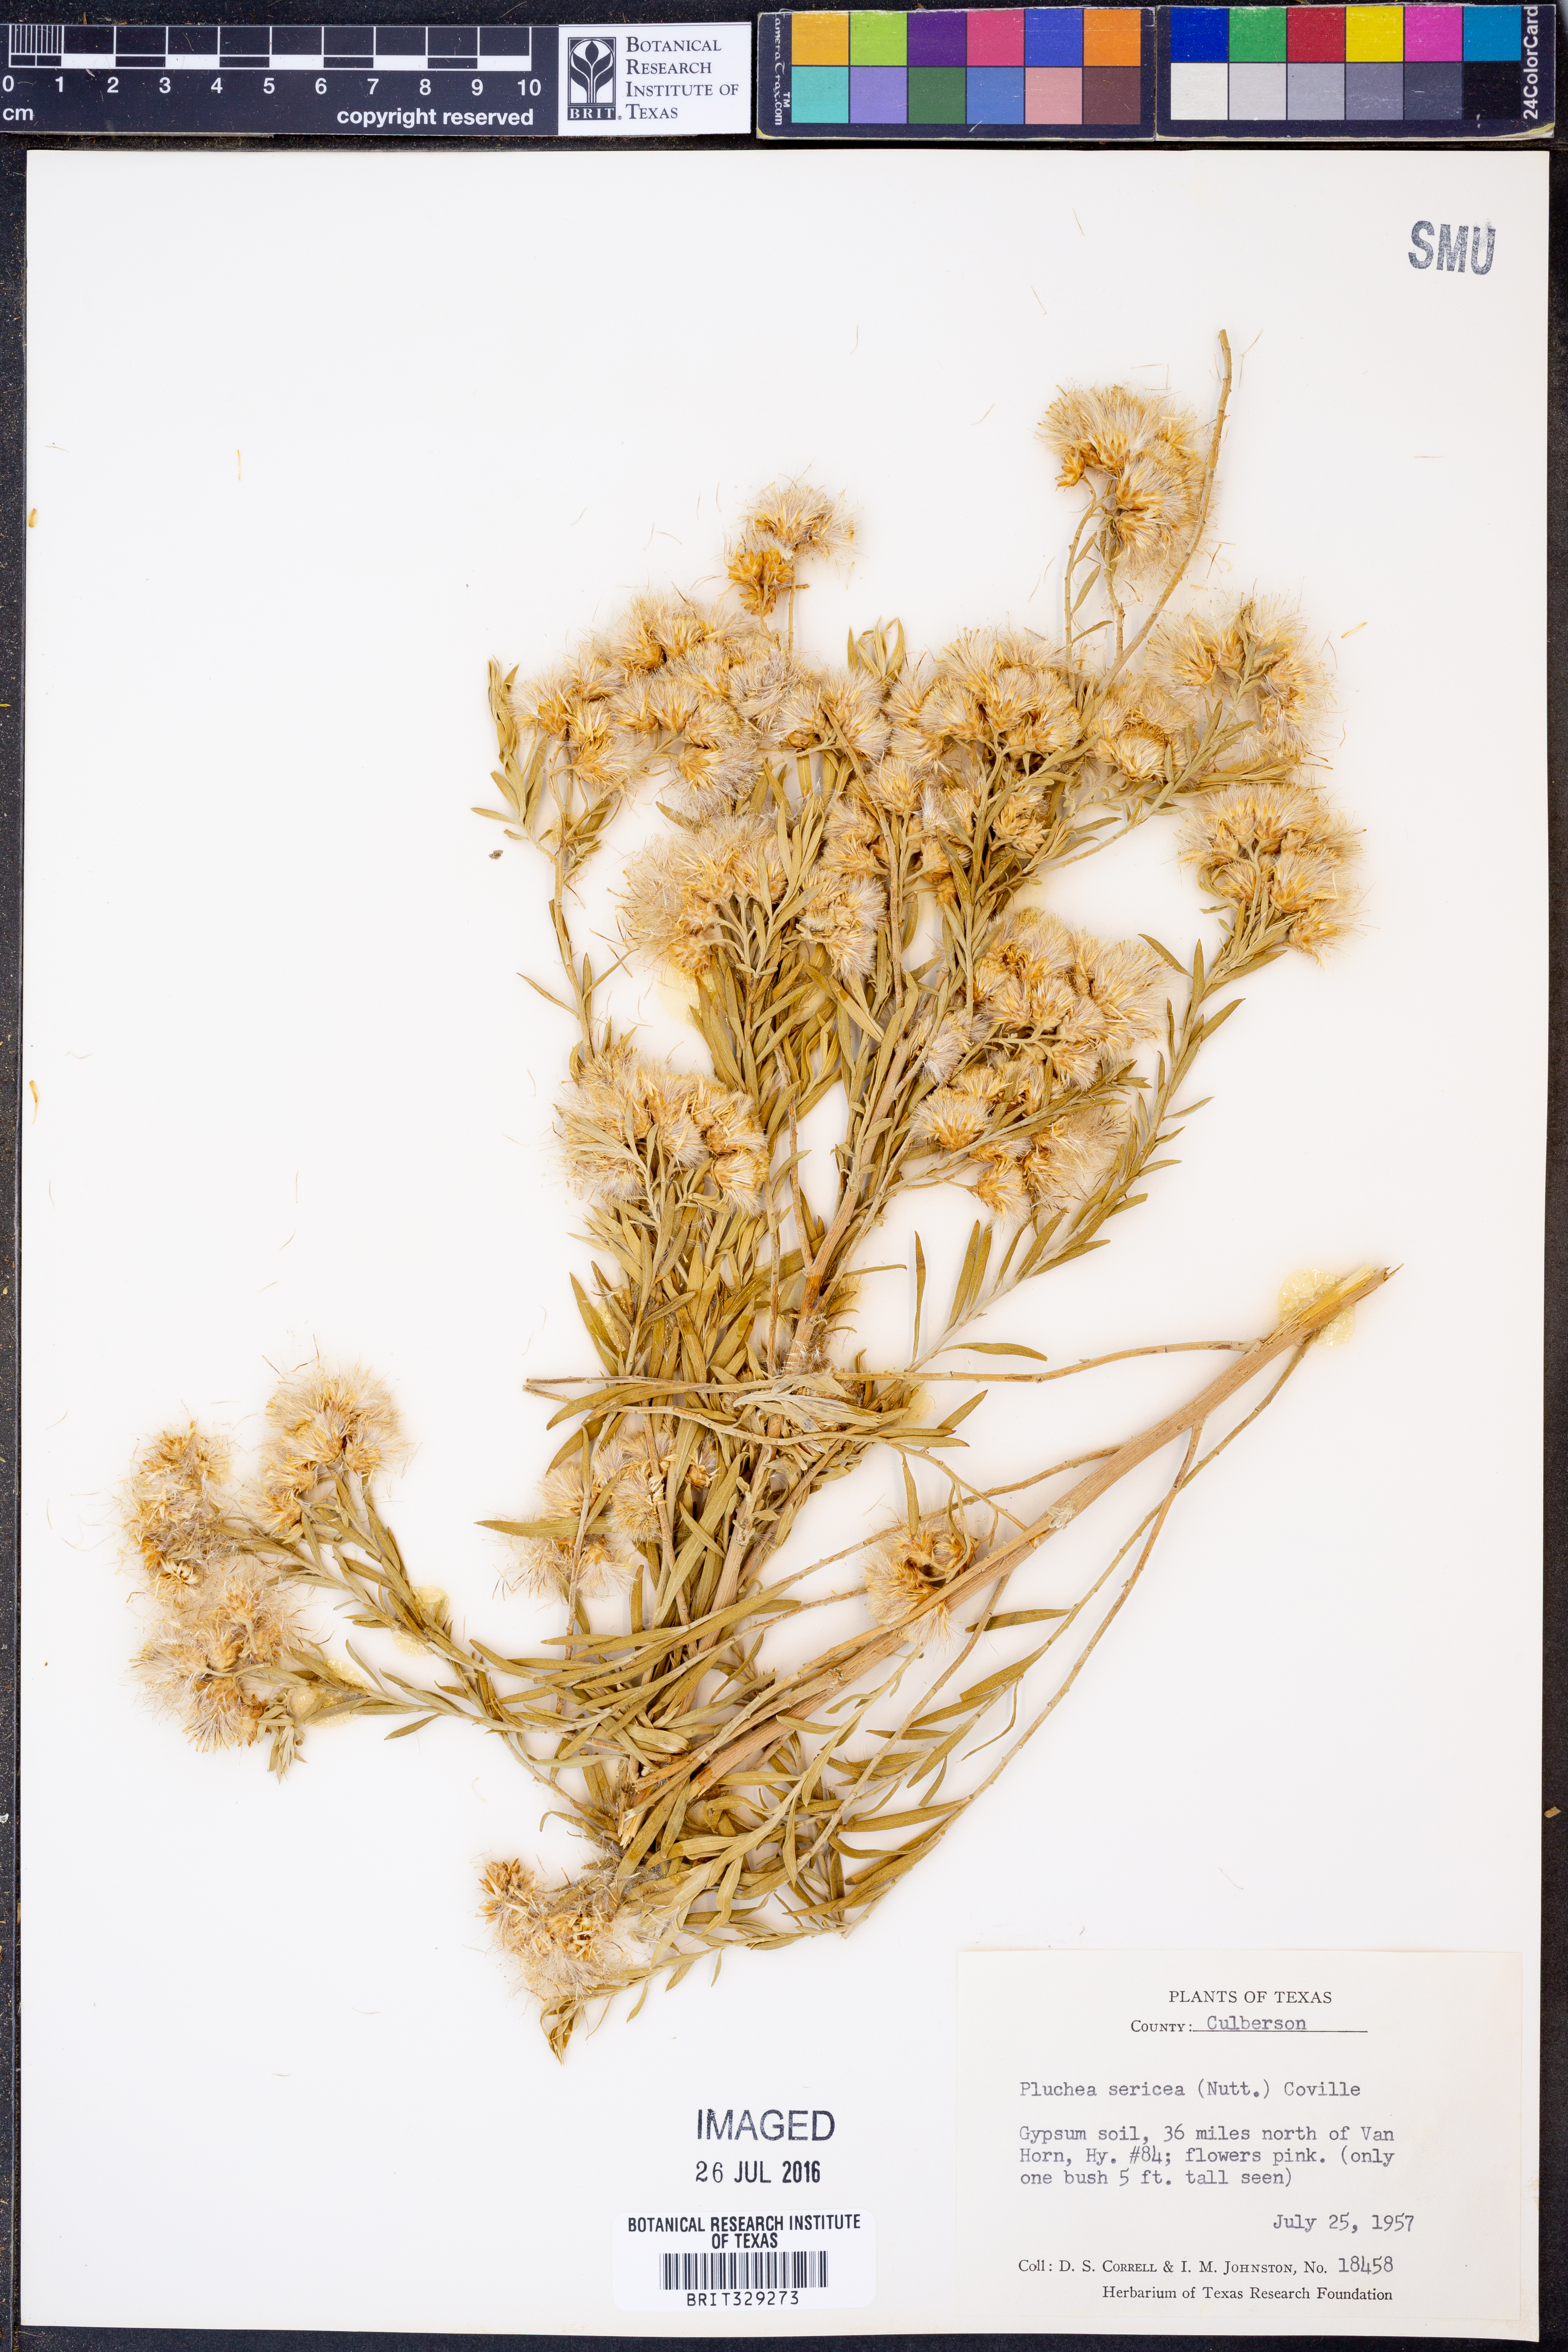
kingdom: Plantae
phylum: Tracheophyta
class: Magnoliopsida
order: Asterales
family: Asteraceae
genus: Pluchea
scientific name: Pluchea sericea
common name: Arrow-weed
